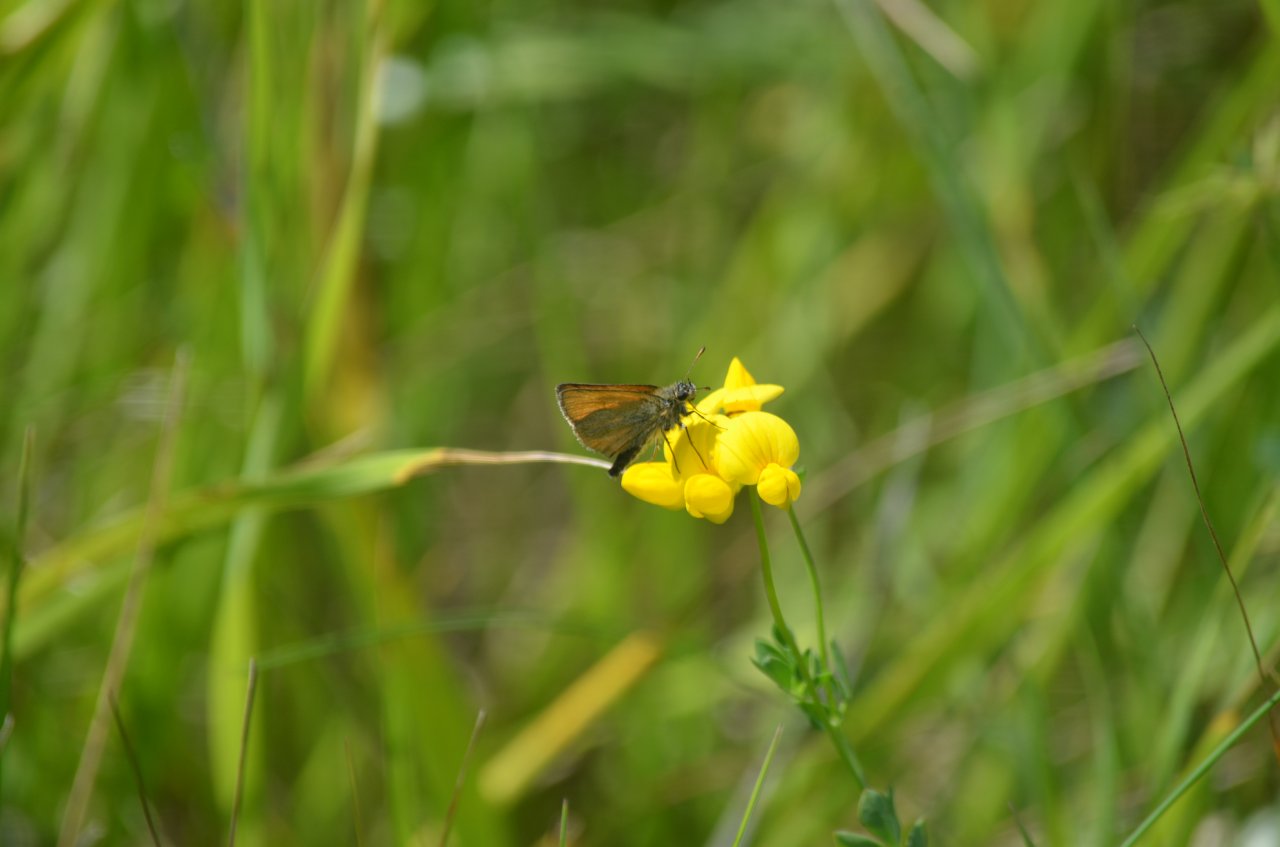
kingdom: Animalia
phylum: Arthropoda
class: Insecta
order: Lepidoptera
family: Hesperiidae
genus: Thymelicus
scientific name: Thymelicus lineola
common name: European Skipper
